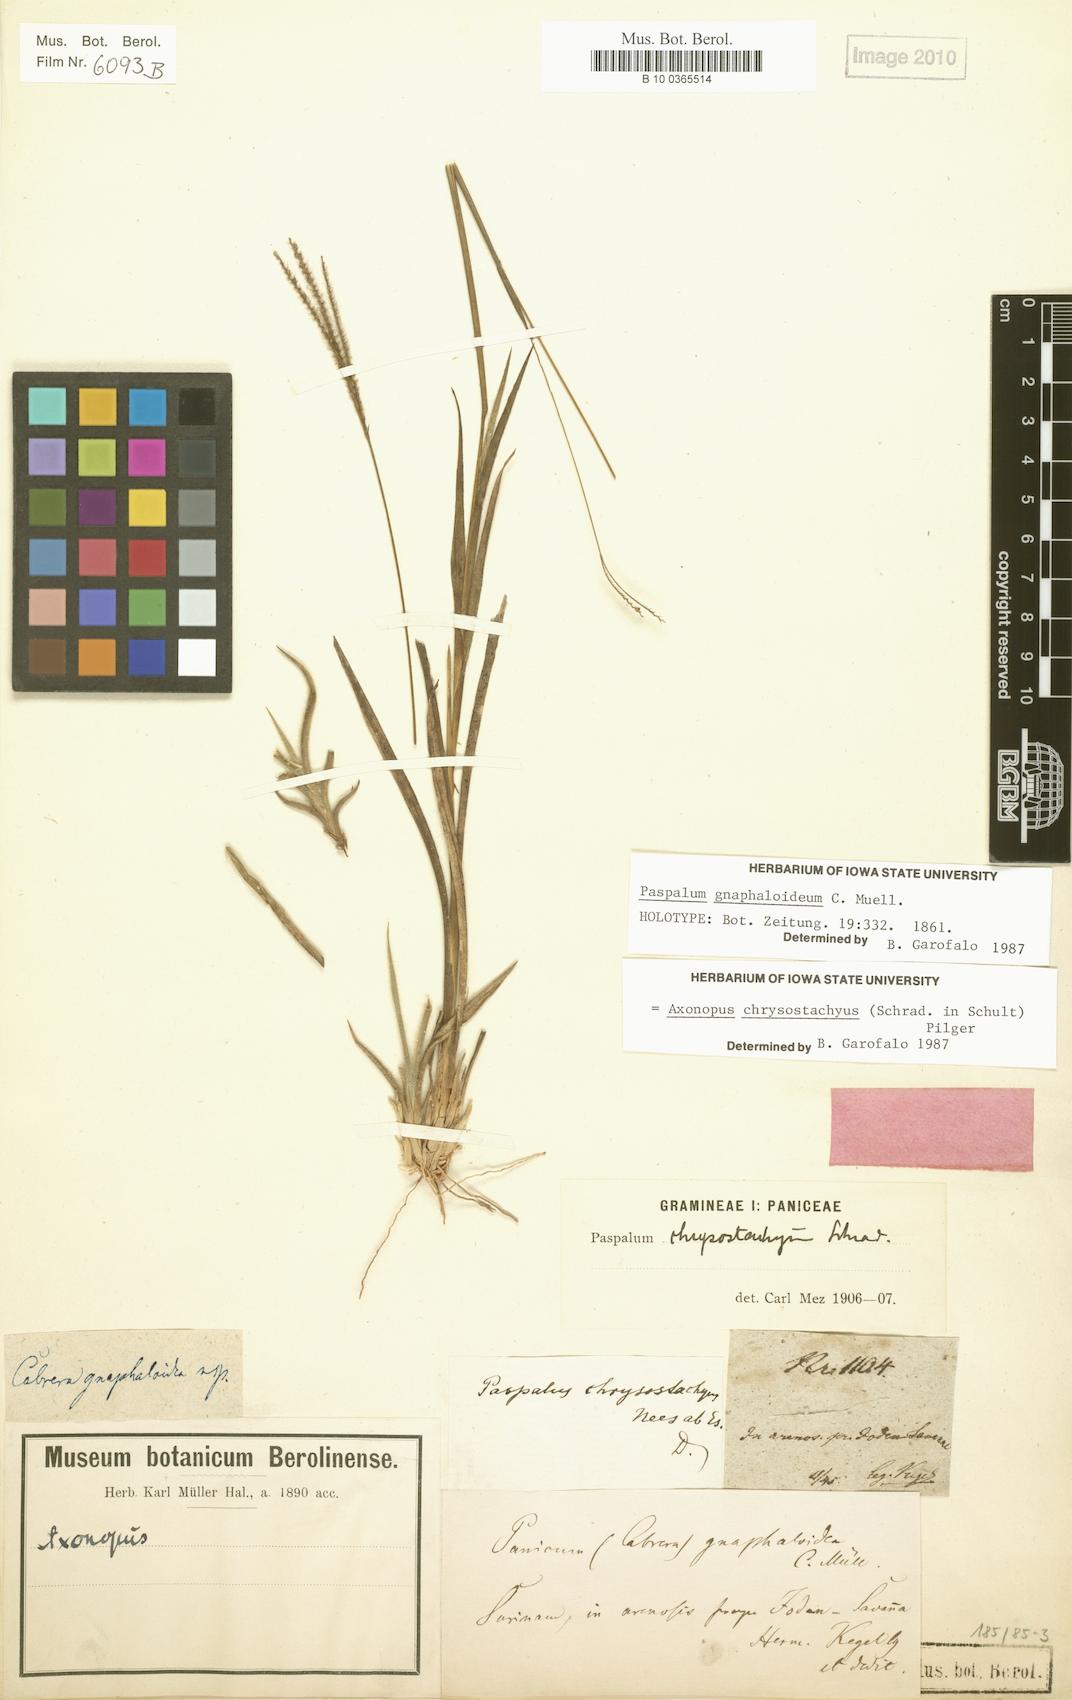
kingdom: Plantae
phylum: Tracheophyta
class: Liliopsida
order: Poales
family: Poaceae
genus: Axonopus
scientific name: Axonopus chrysoblepharis
